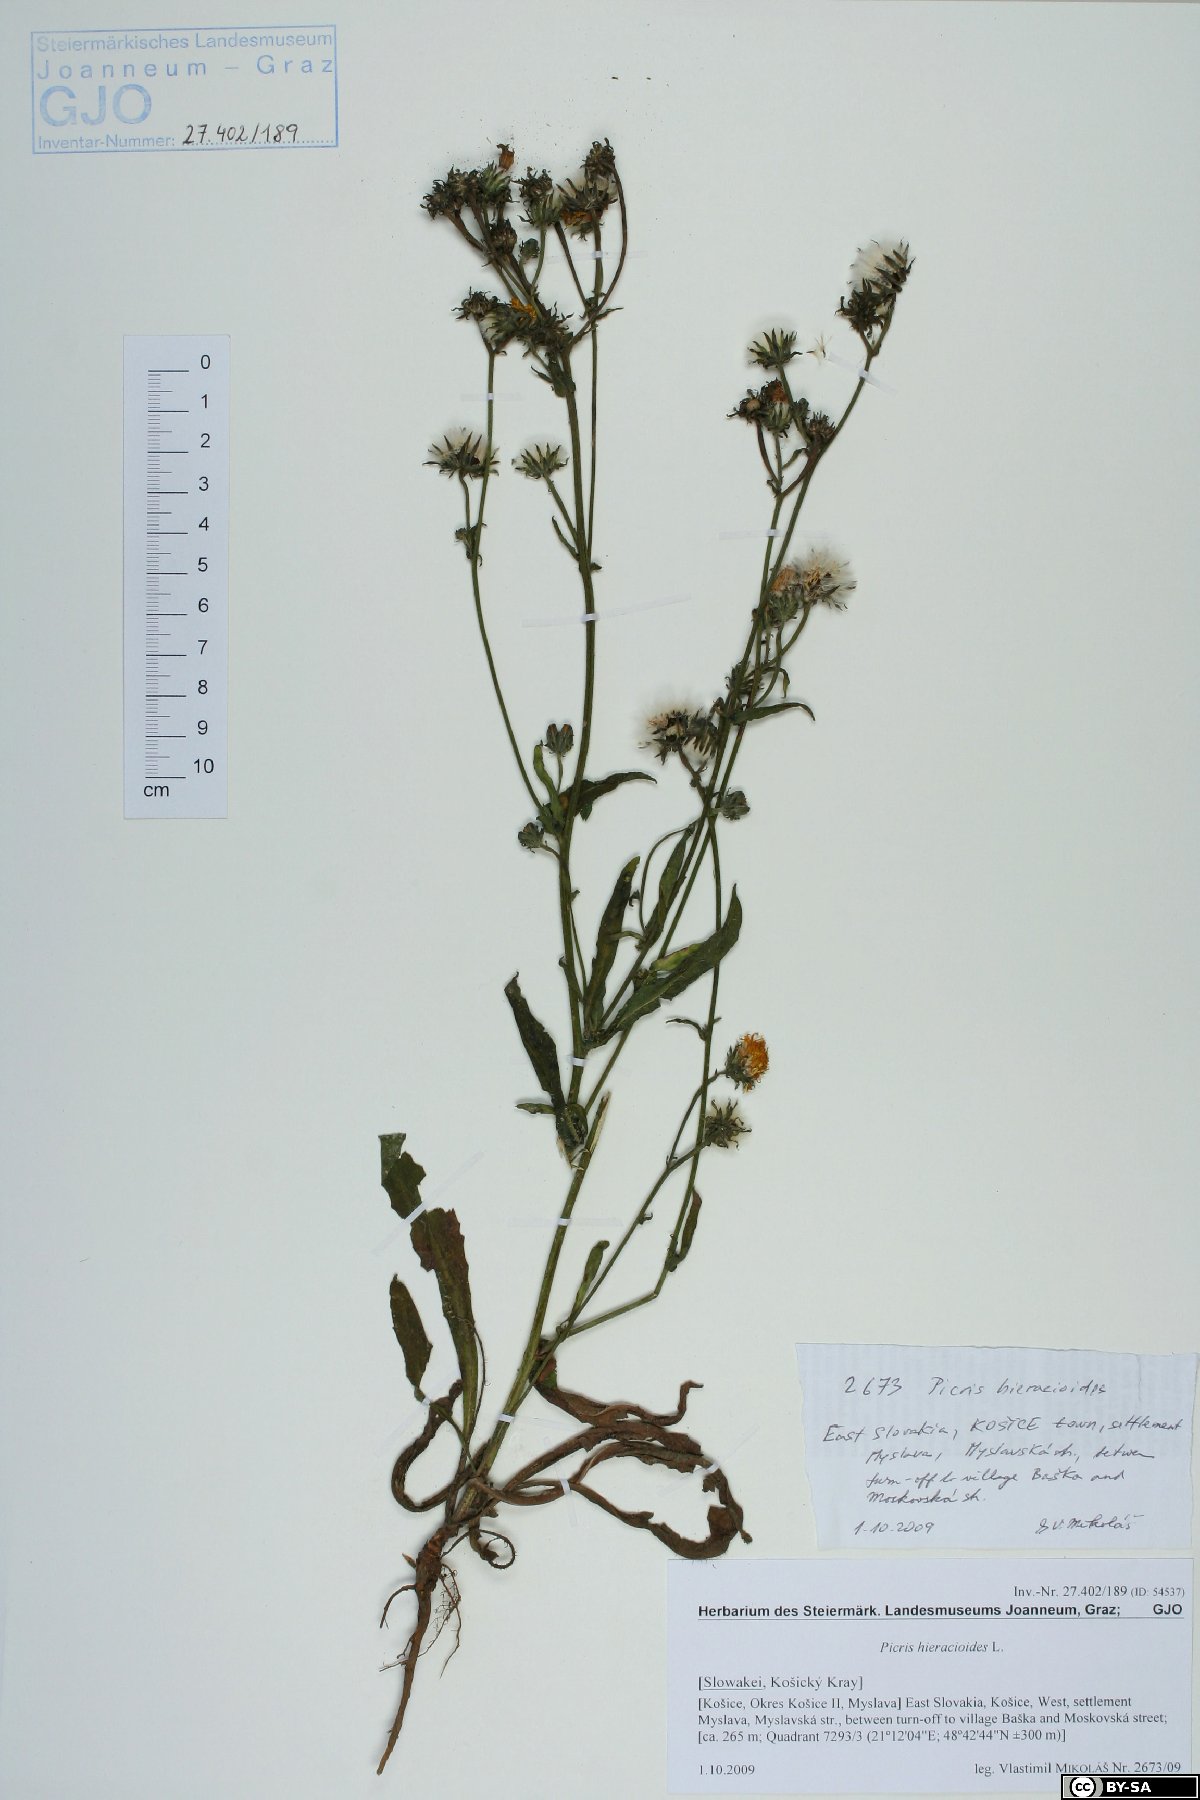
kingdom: Plantae
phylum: Tracheophyta
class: Magnoliopsida
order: Asterales
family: Asteraceae
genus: Picris
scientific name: Picris hieracioides
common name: Hawkweed oxtongue
